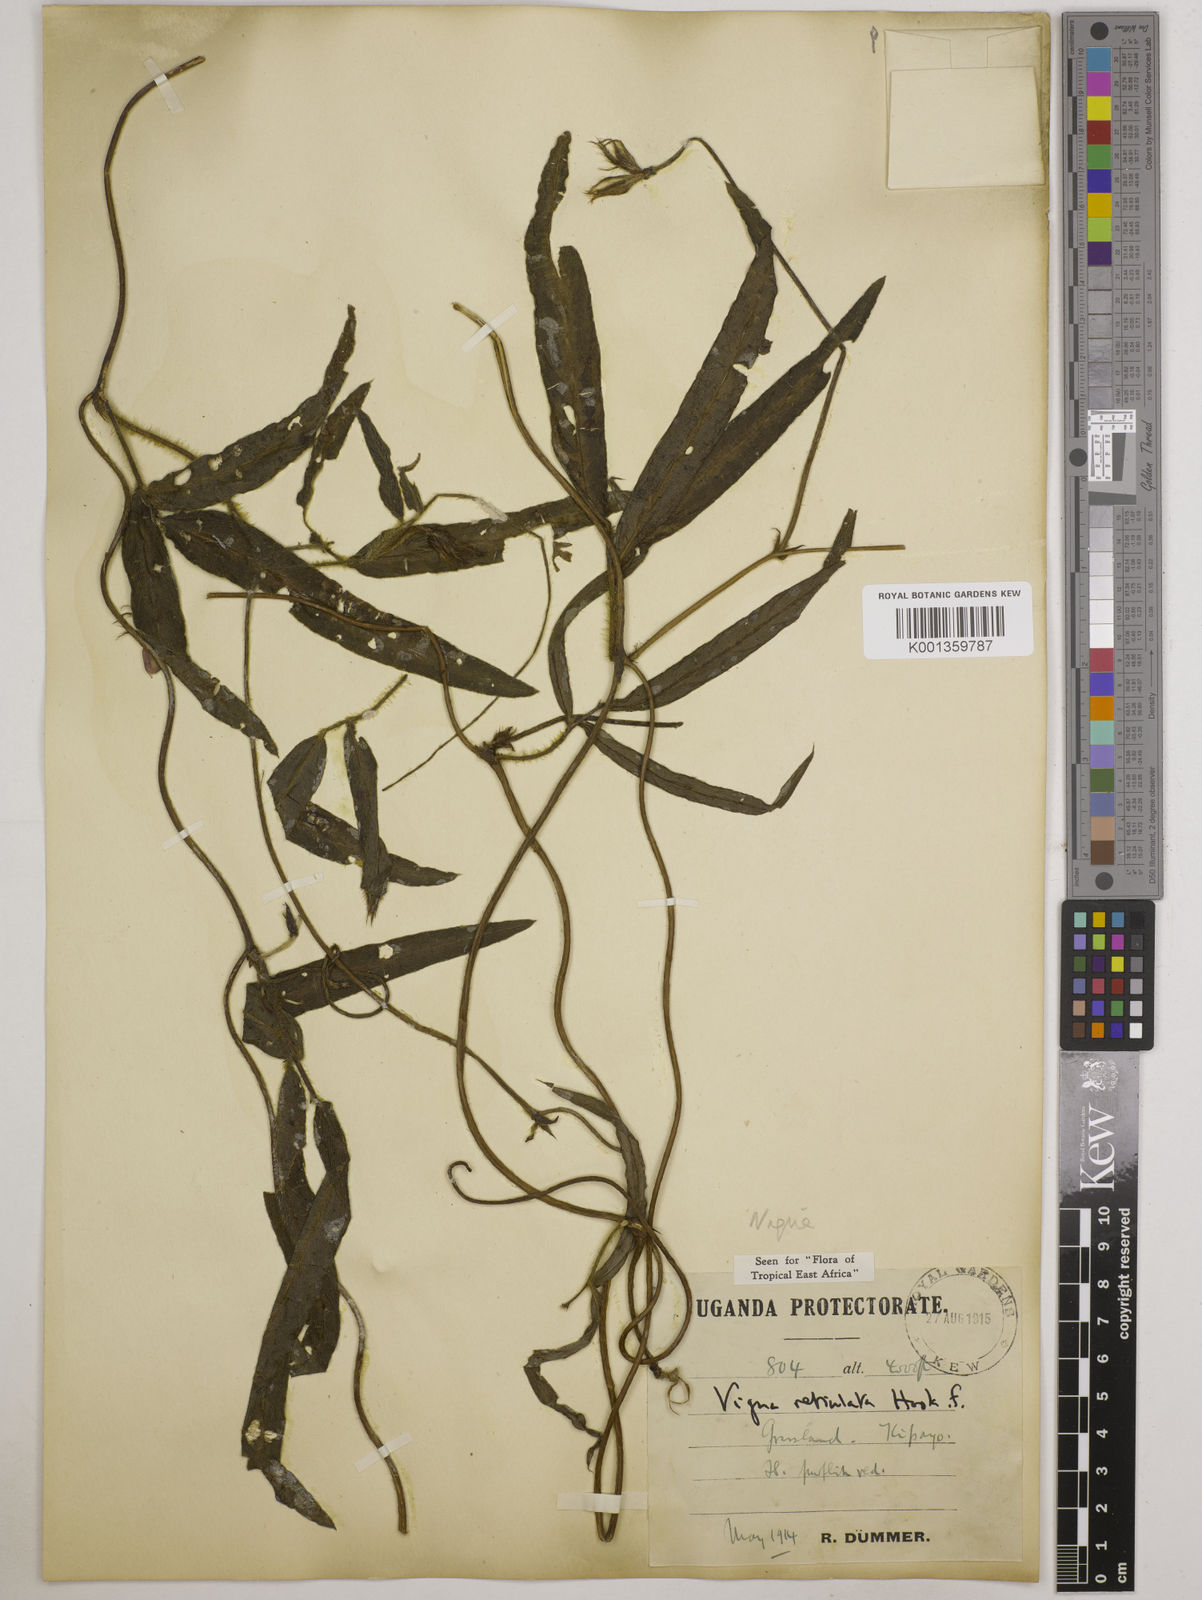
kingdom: Plantae
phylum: Tracheophyta
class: Magnoliopsida
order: Fabales
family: Fabaceae
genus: Vigna
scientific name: Vigna reticulata
